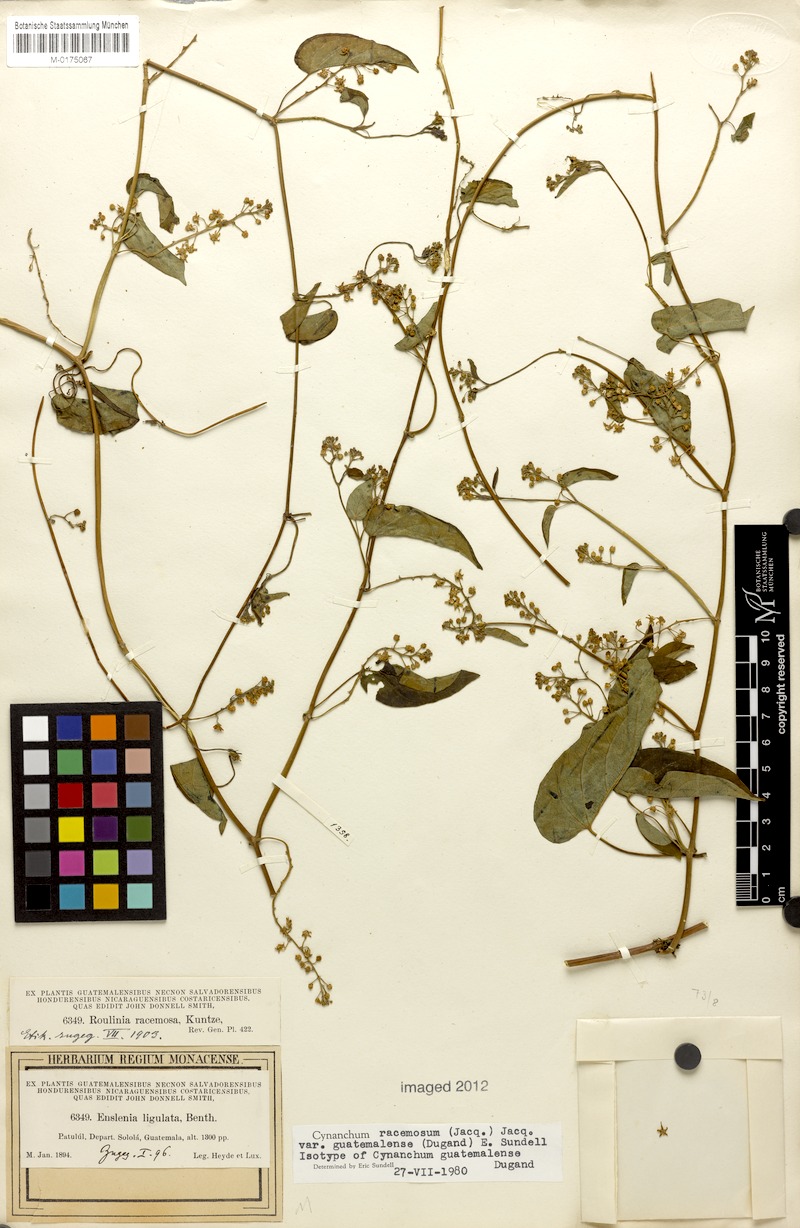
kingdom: Plantae
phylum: Tracheophyta
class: Magnoliopsida
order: Gentianales
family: Apocynaceae
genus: Cynanchum
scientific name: Cynanchum guatemalense
